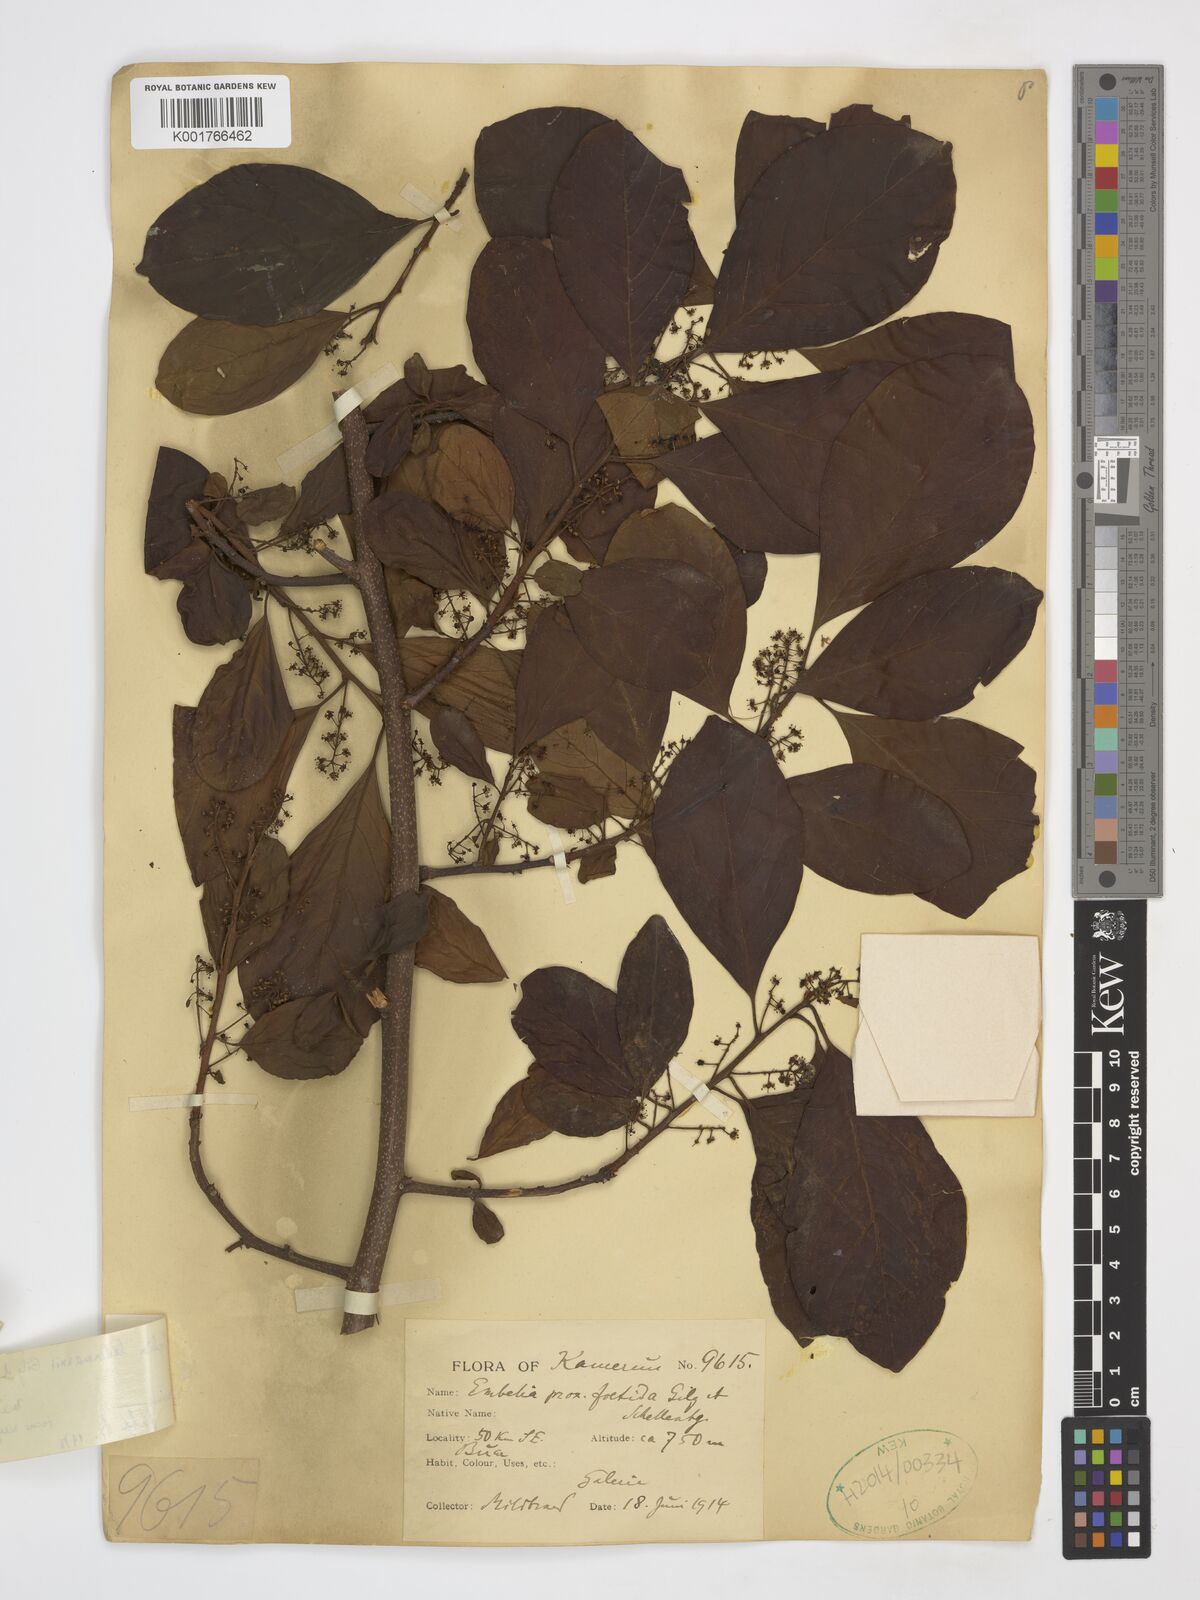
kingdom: Plantae
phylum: Tracheophyta
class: Magnoliopsida
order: Ericales
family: Primulaceae
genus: Embelia
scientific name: Embelia ledermannii
